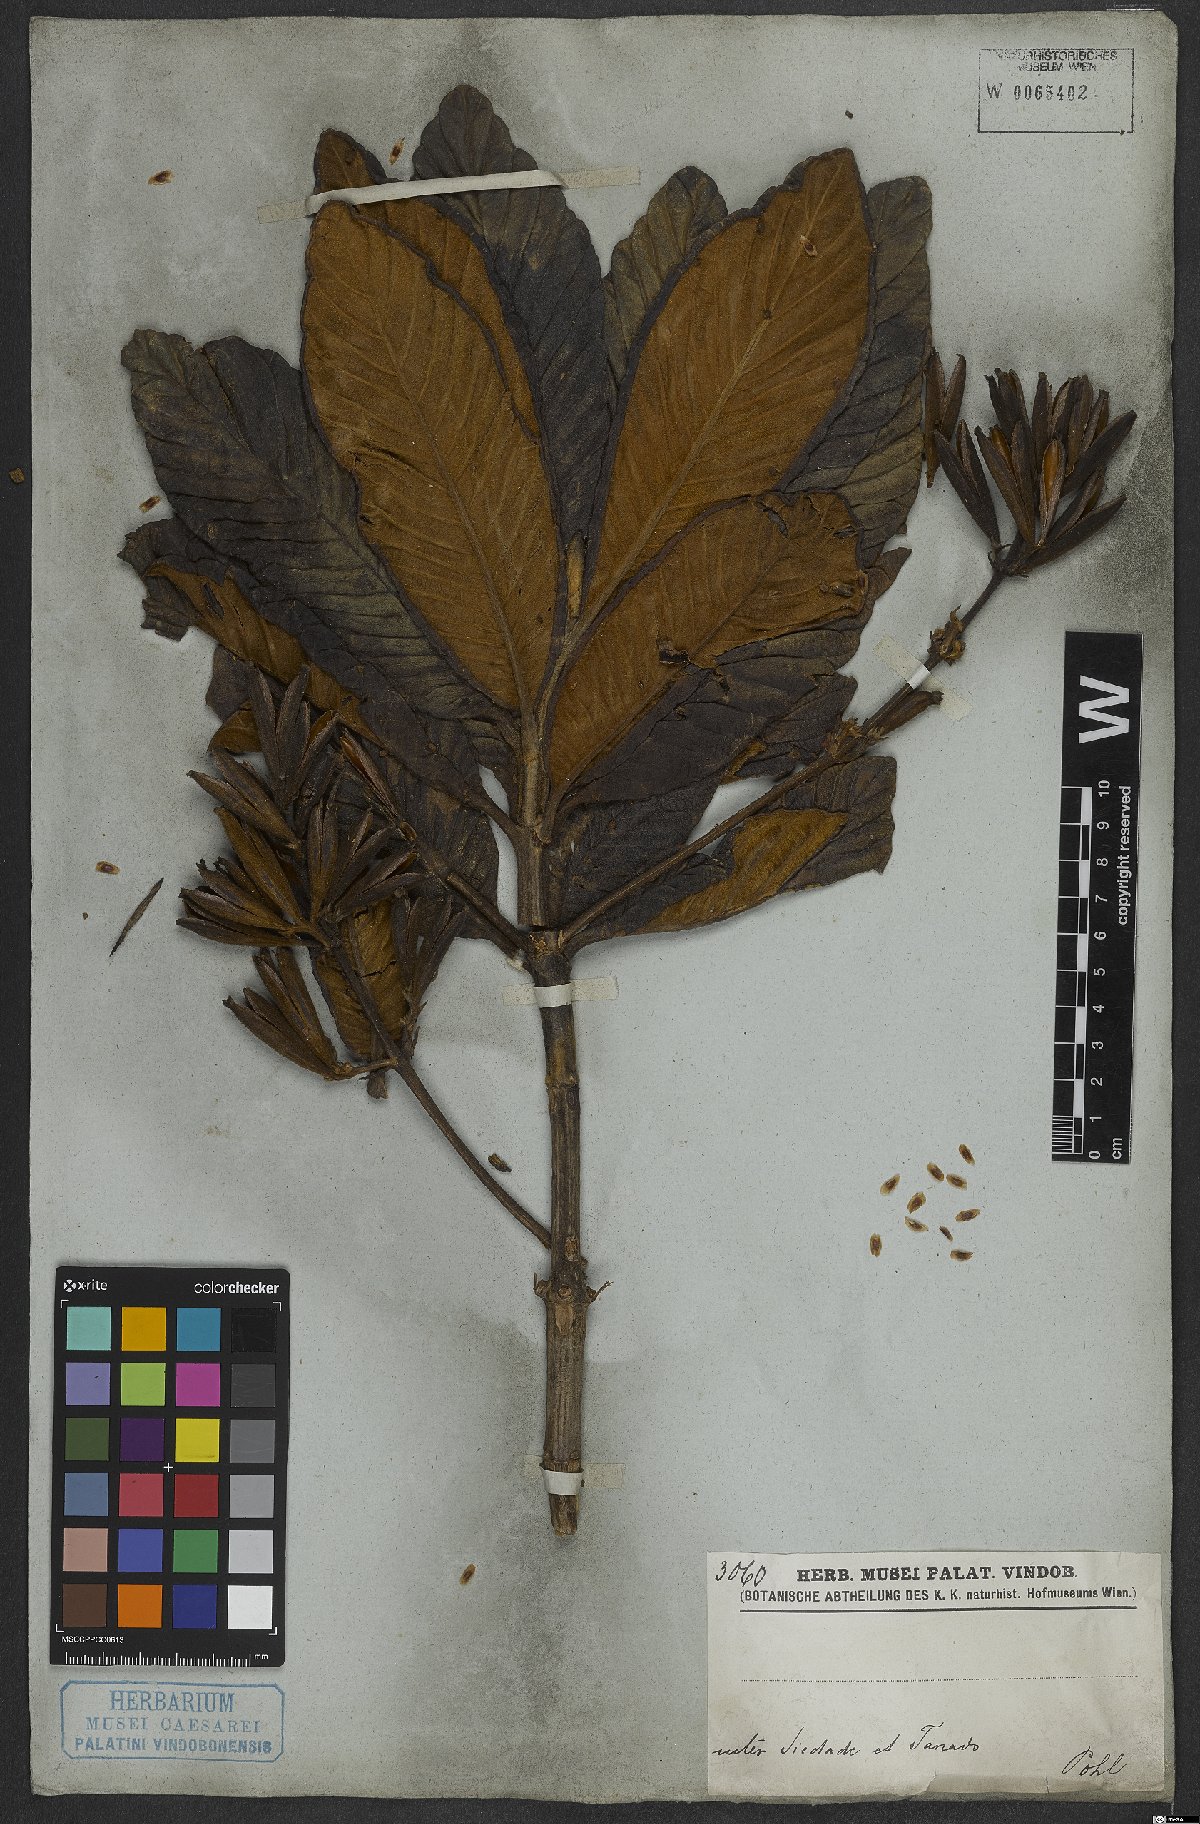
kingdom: Plantae
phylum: Tracheophyta
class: Magnoliopsida
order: Gentianales
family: Rubiaceae
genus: Remijia
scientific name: Remijia ferruginea
